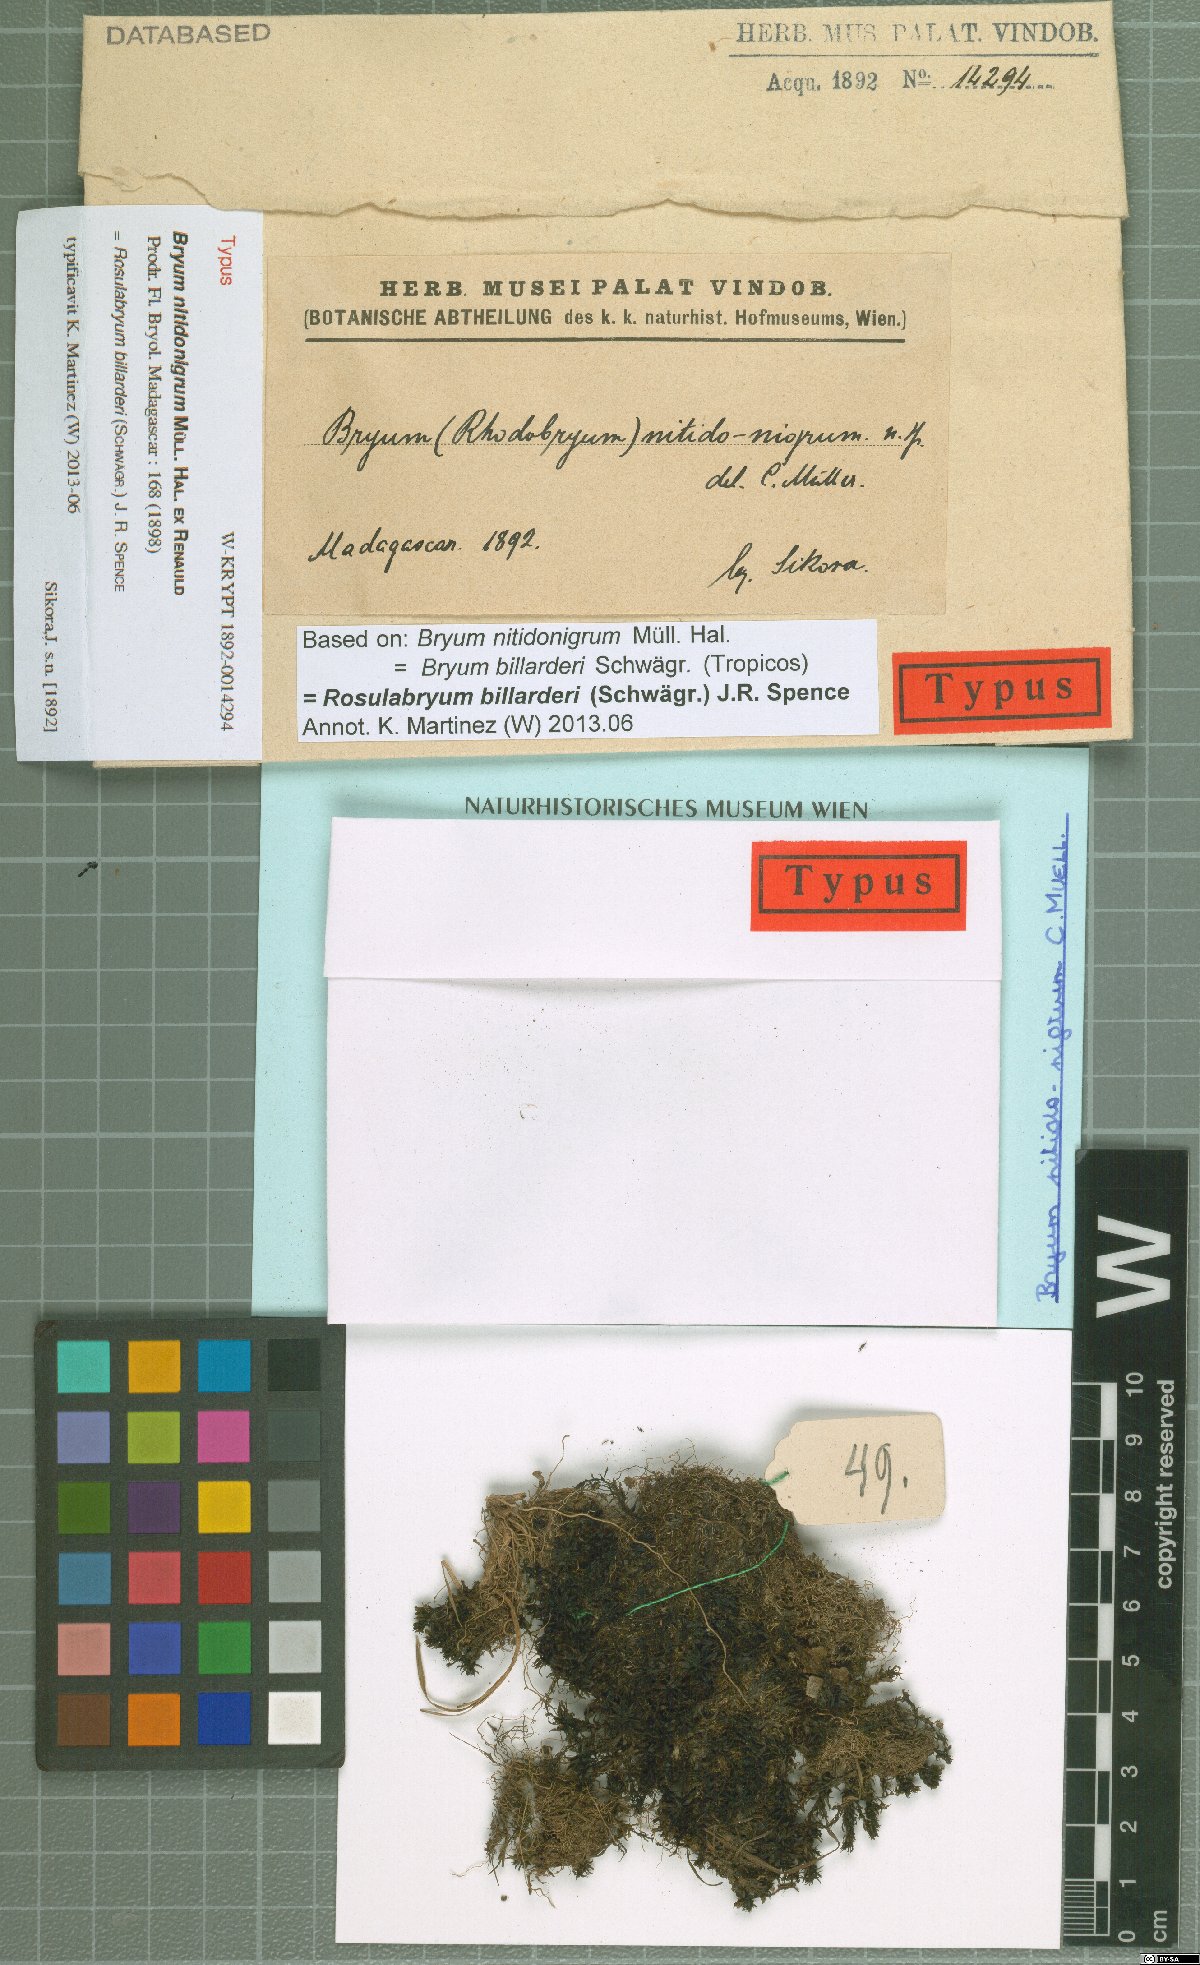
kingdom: Plantae
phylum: Bryophyta
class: Bryopsida
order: Bryales
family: Bryaceae
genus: Rosulabryum
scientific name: Rosulabryum andicola
